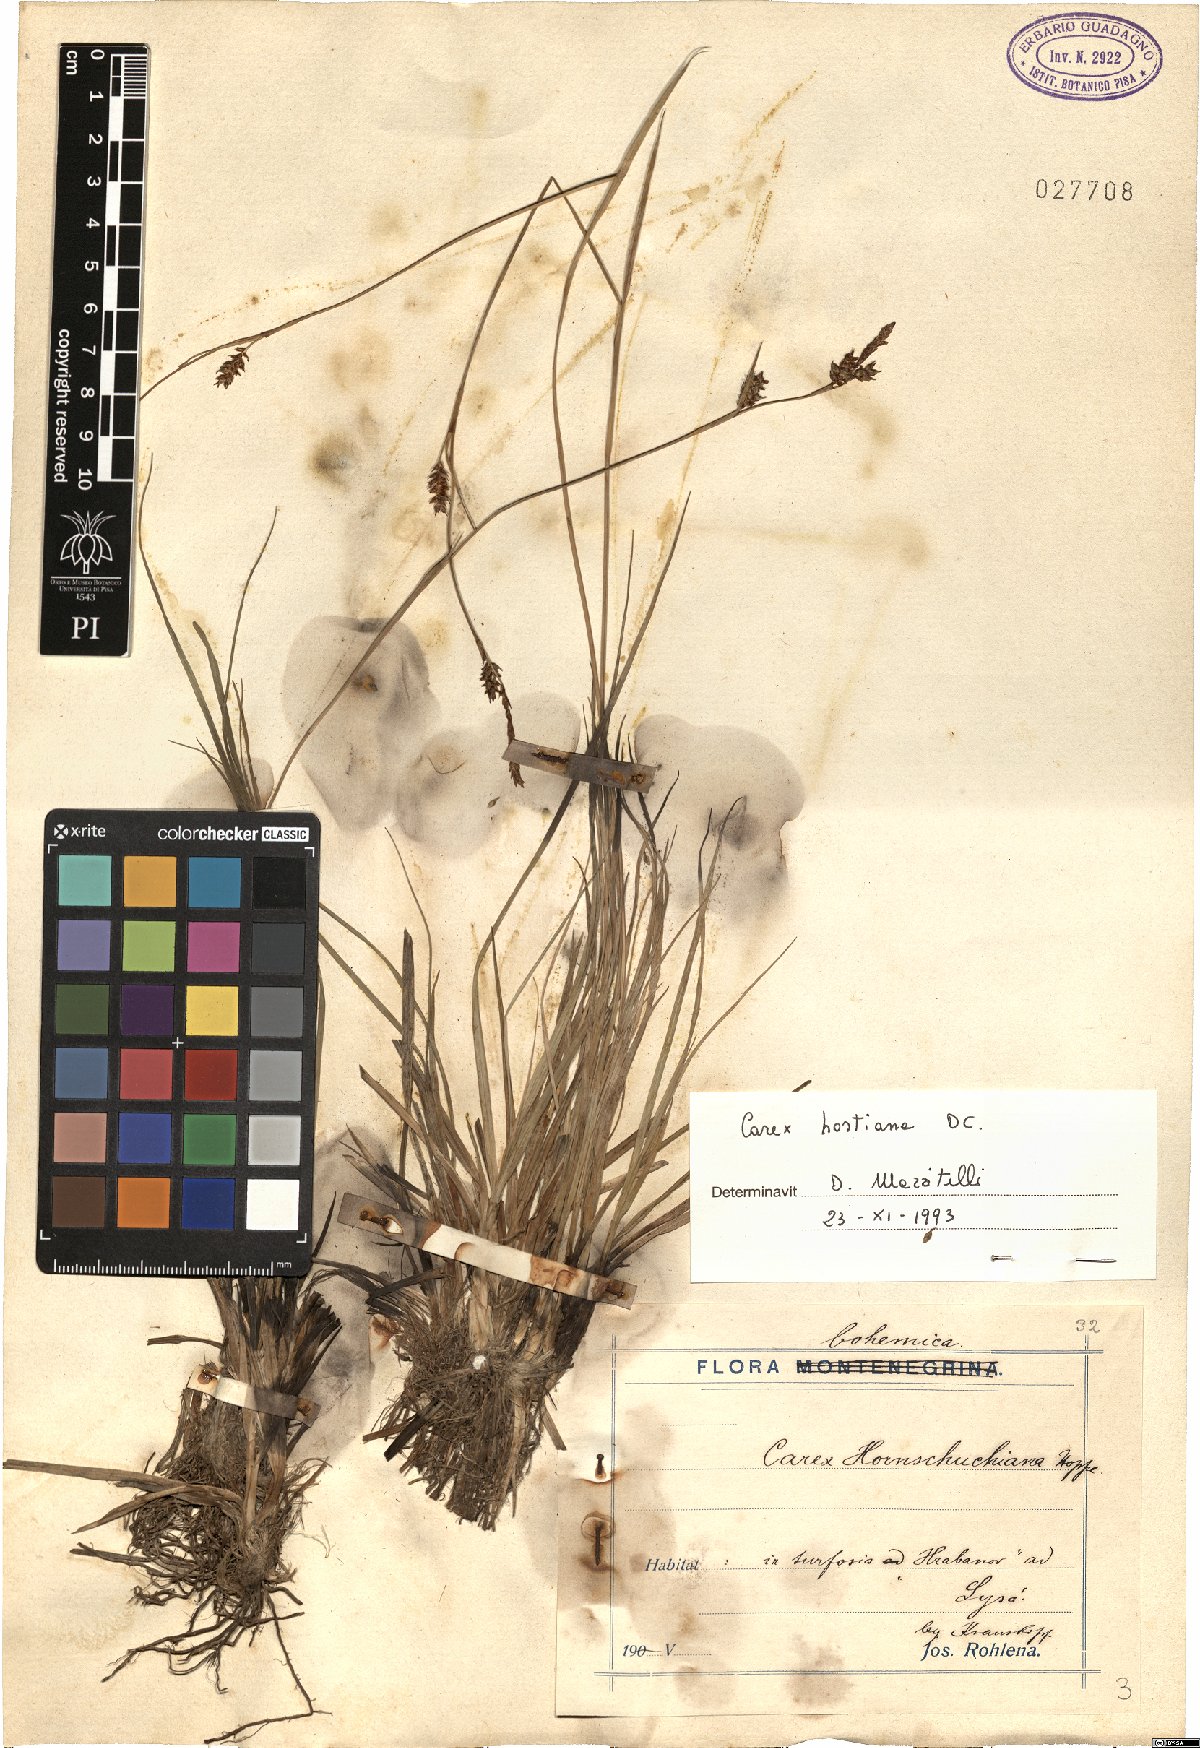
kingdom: Plantae
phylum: Tracheophyta
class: Liliopsida
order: Poales
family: Cyperaceae
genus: Carex
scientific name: Carex hostiana
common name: Tawny sedge
